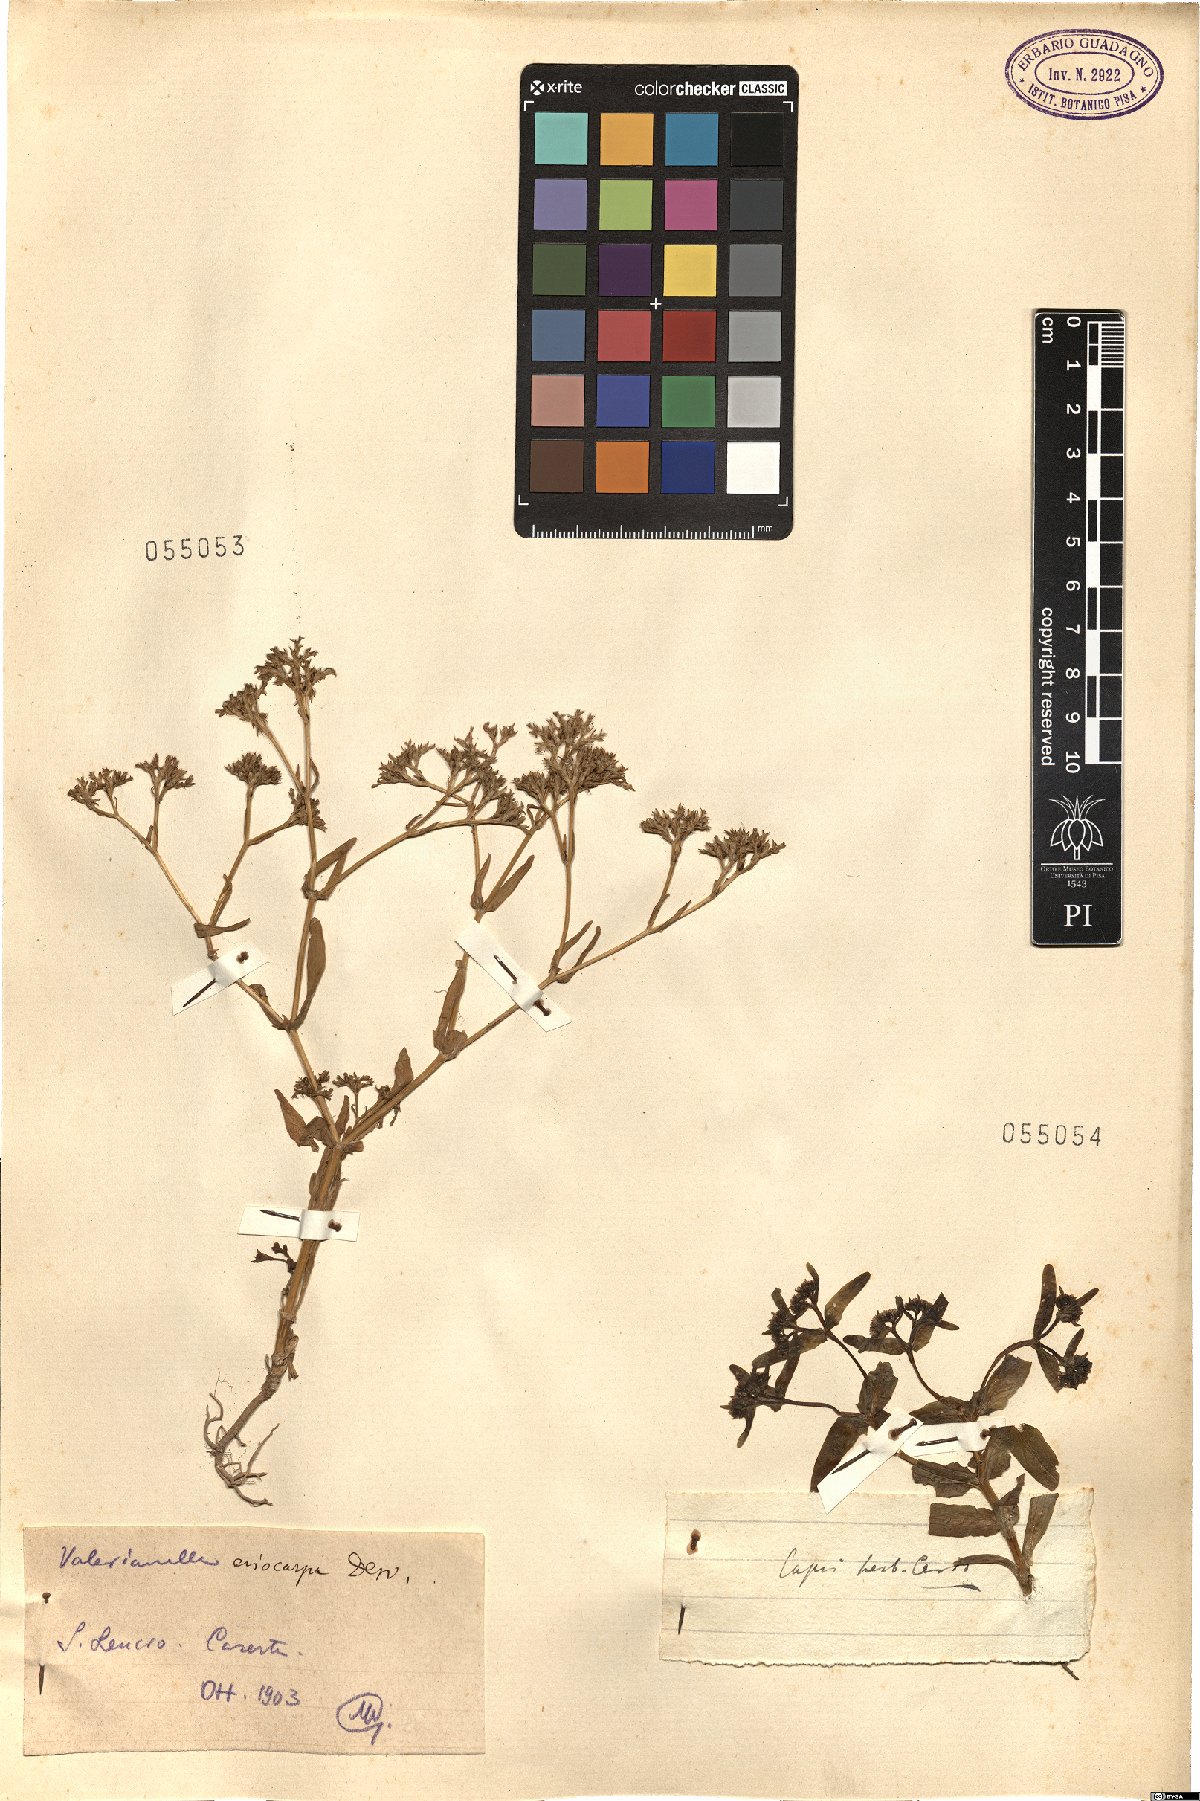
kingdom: Plantae
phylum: Tracheophyta
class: Magnoliopsida
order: Dipsacales
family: Caprifoliaceae
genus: Valerianella
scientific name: Valerianella
